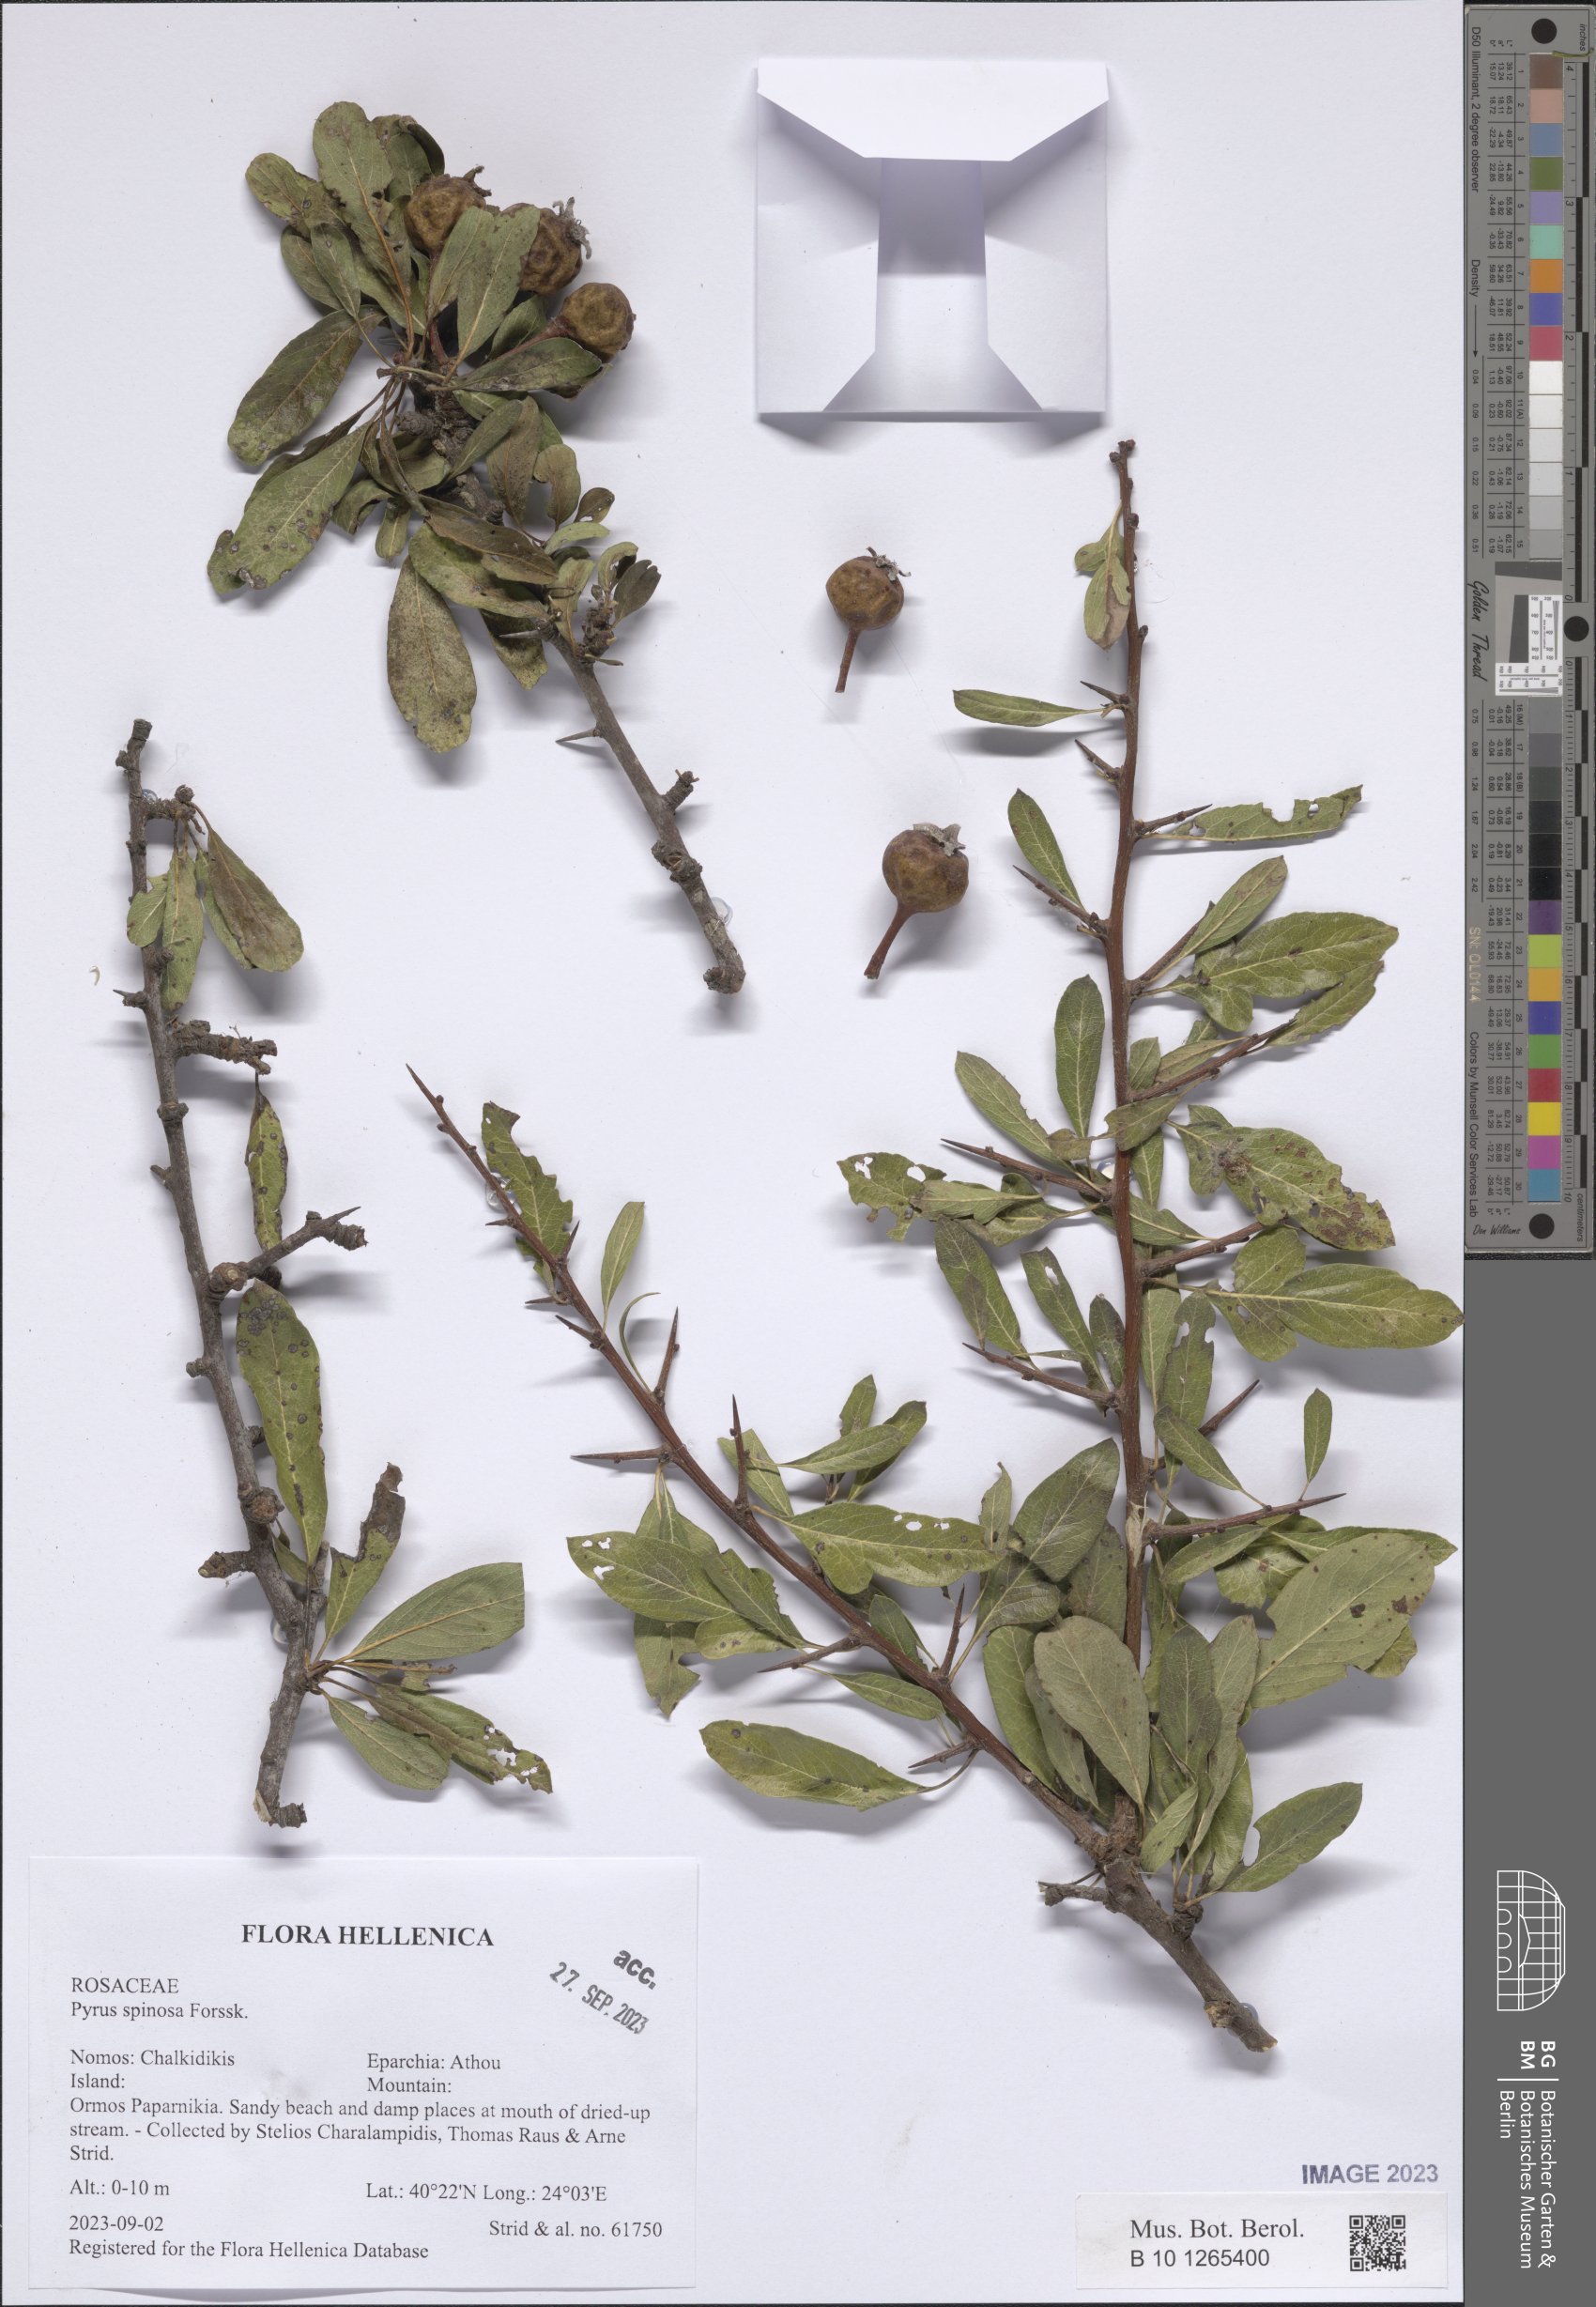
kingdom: Plantae
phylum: Tracheophyta
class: Magnoliopsida
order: Rosales
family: Rosaceae
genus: Pyrus
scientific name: Pyrus spinosa
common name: Almond-leaf pear
